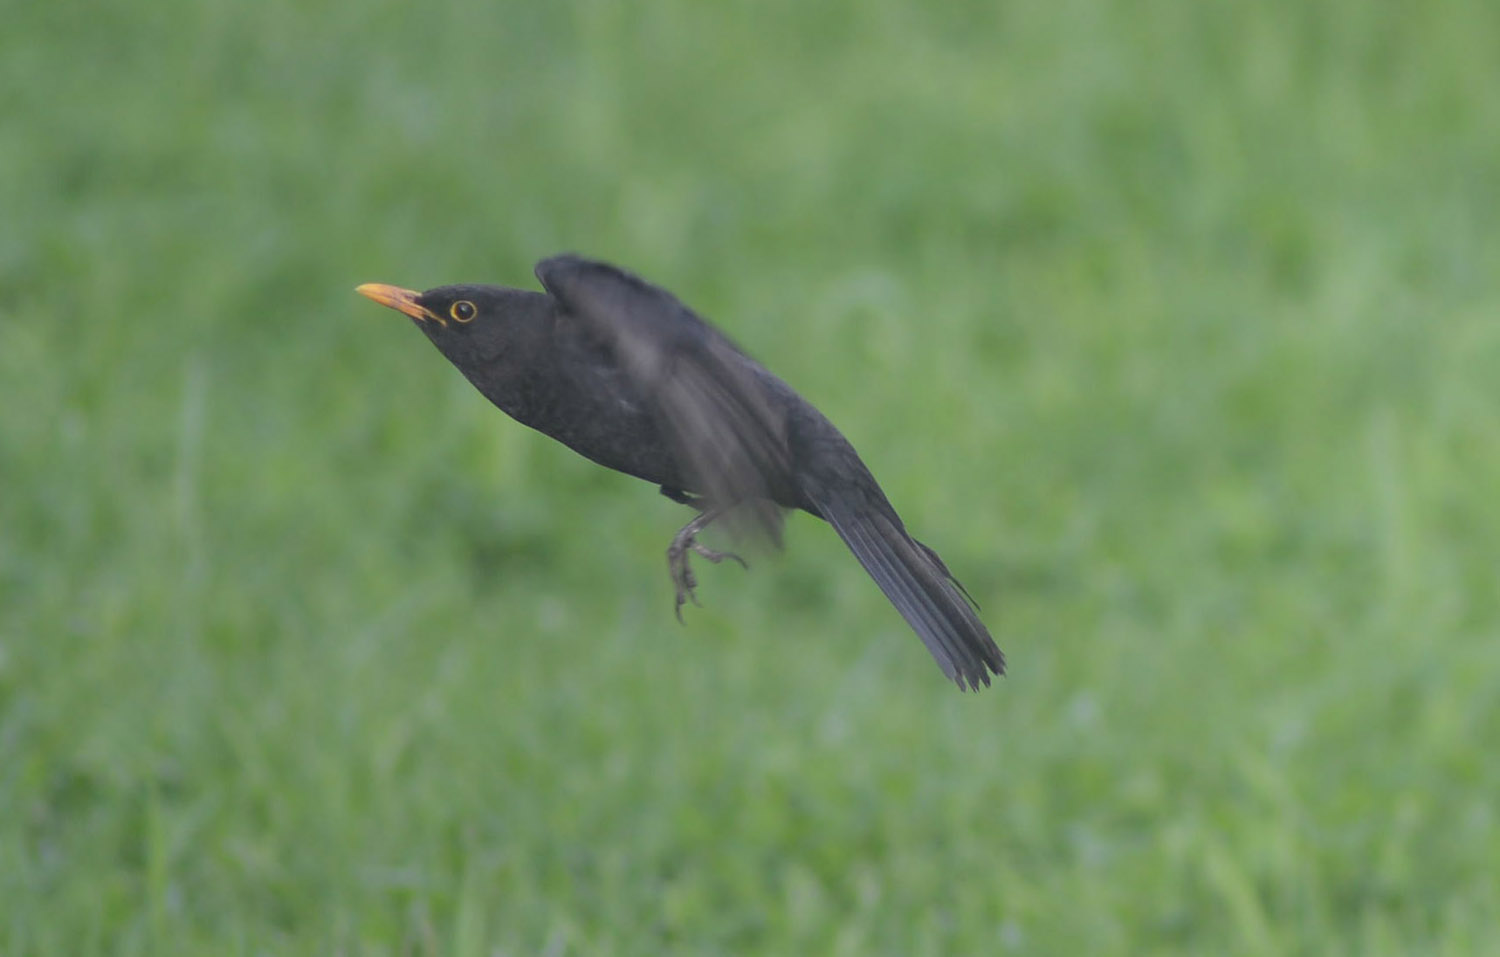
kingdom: Animalia
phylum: Chordata
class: Aves
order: Passeriformes
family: Turdidae
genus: Turdus
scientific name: Turdus merula
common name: Common blackbird
